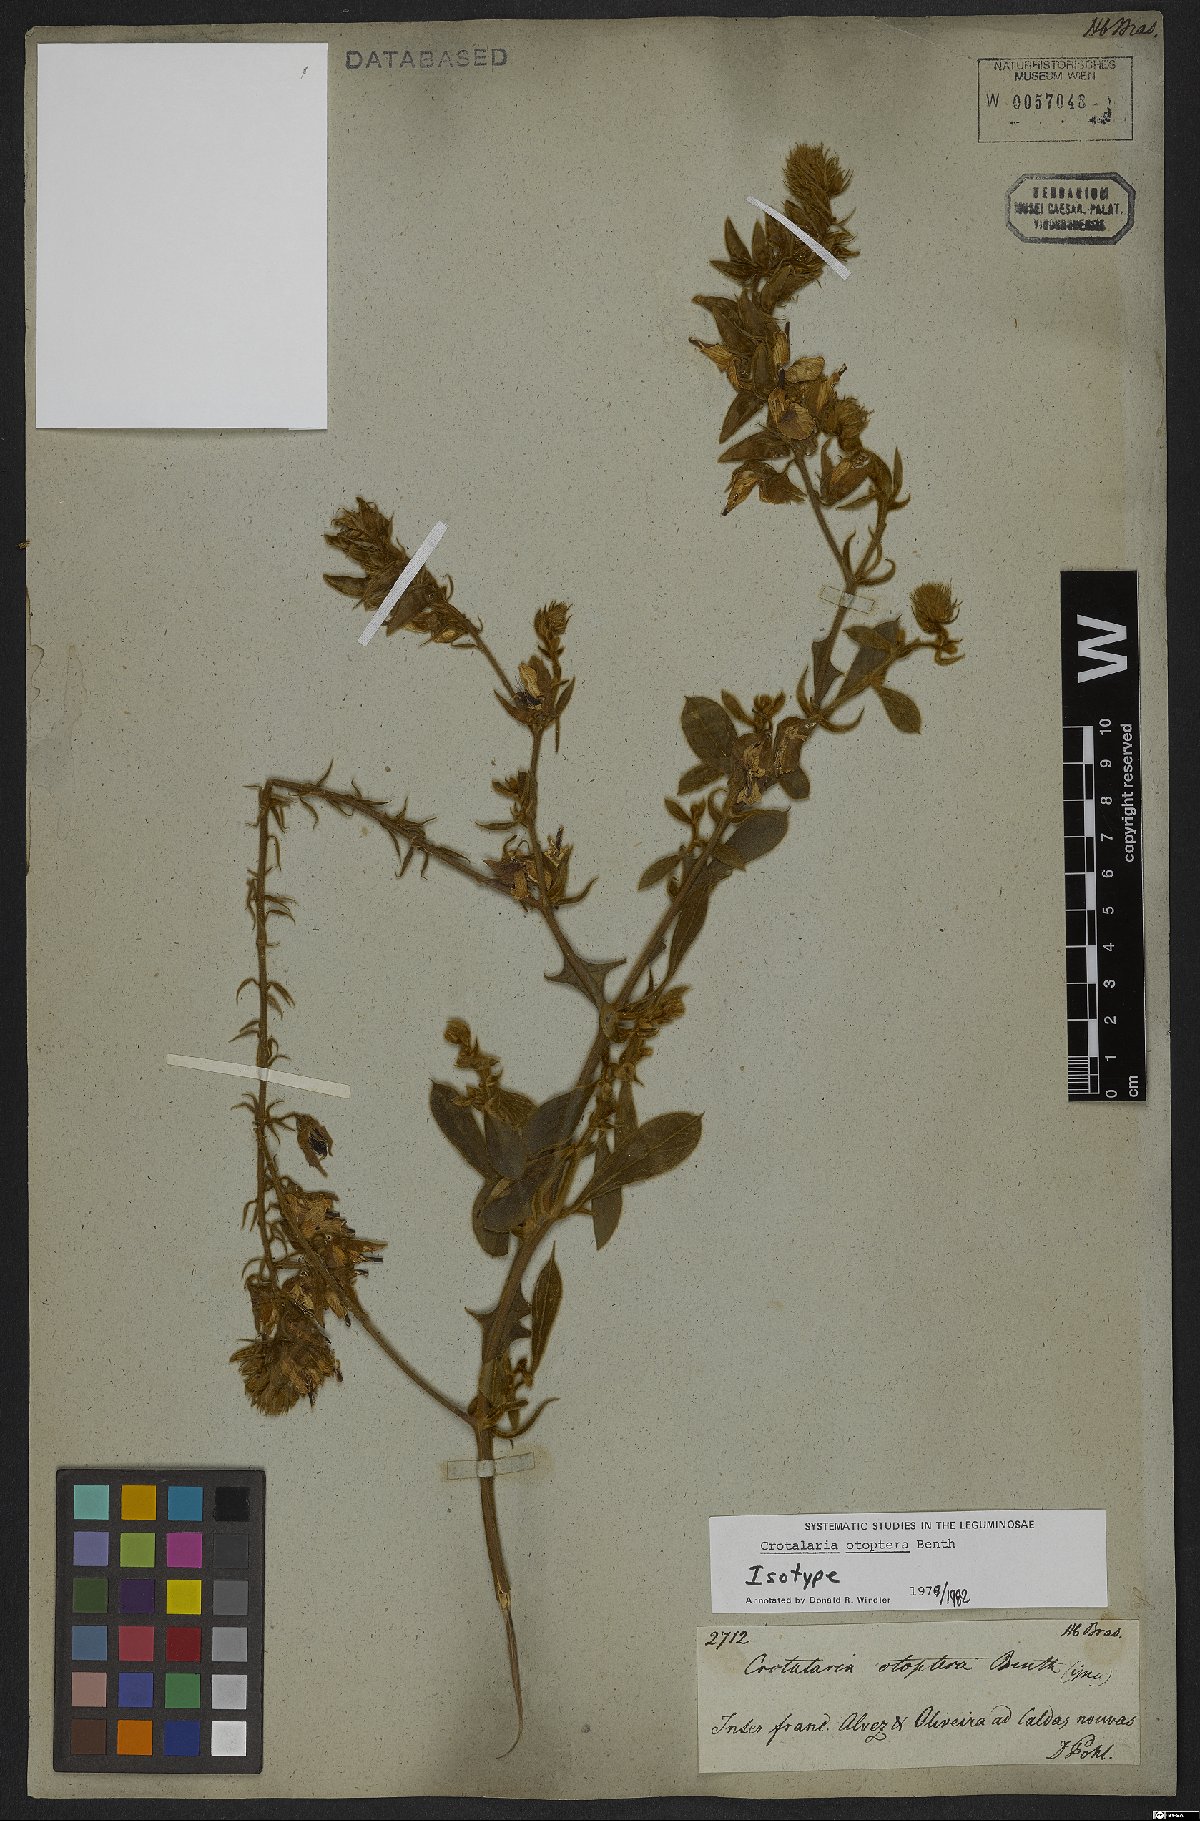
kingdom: Plantae
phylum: Tracheophyta
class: Magnoliopsida
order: Fabales
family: Fabaceae
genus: Crotalaria
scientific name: Crotalaria otoptera
